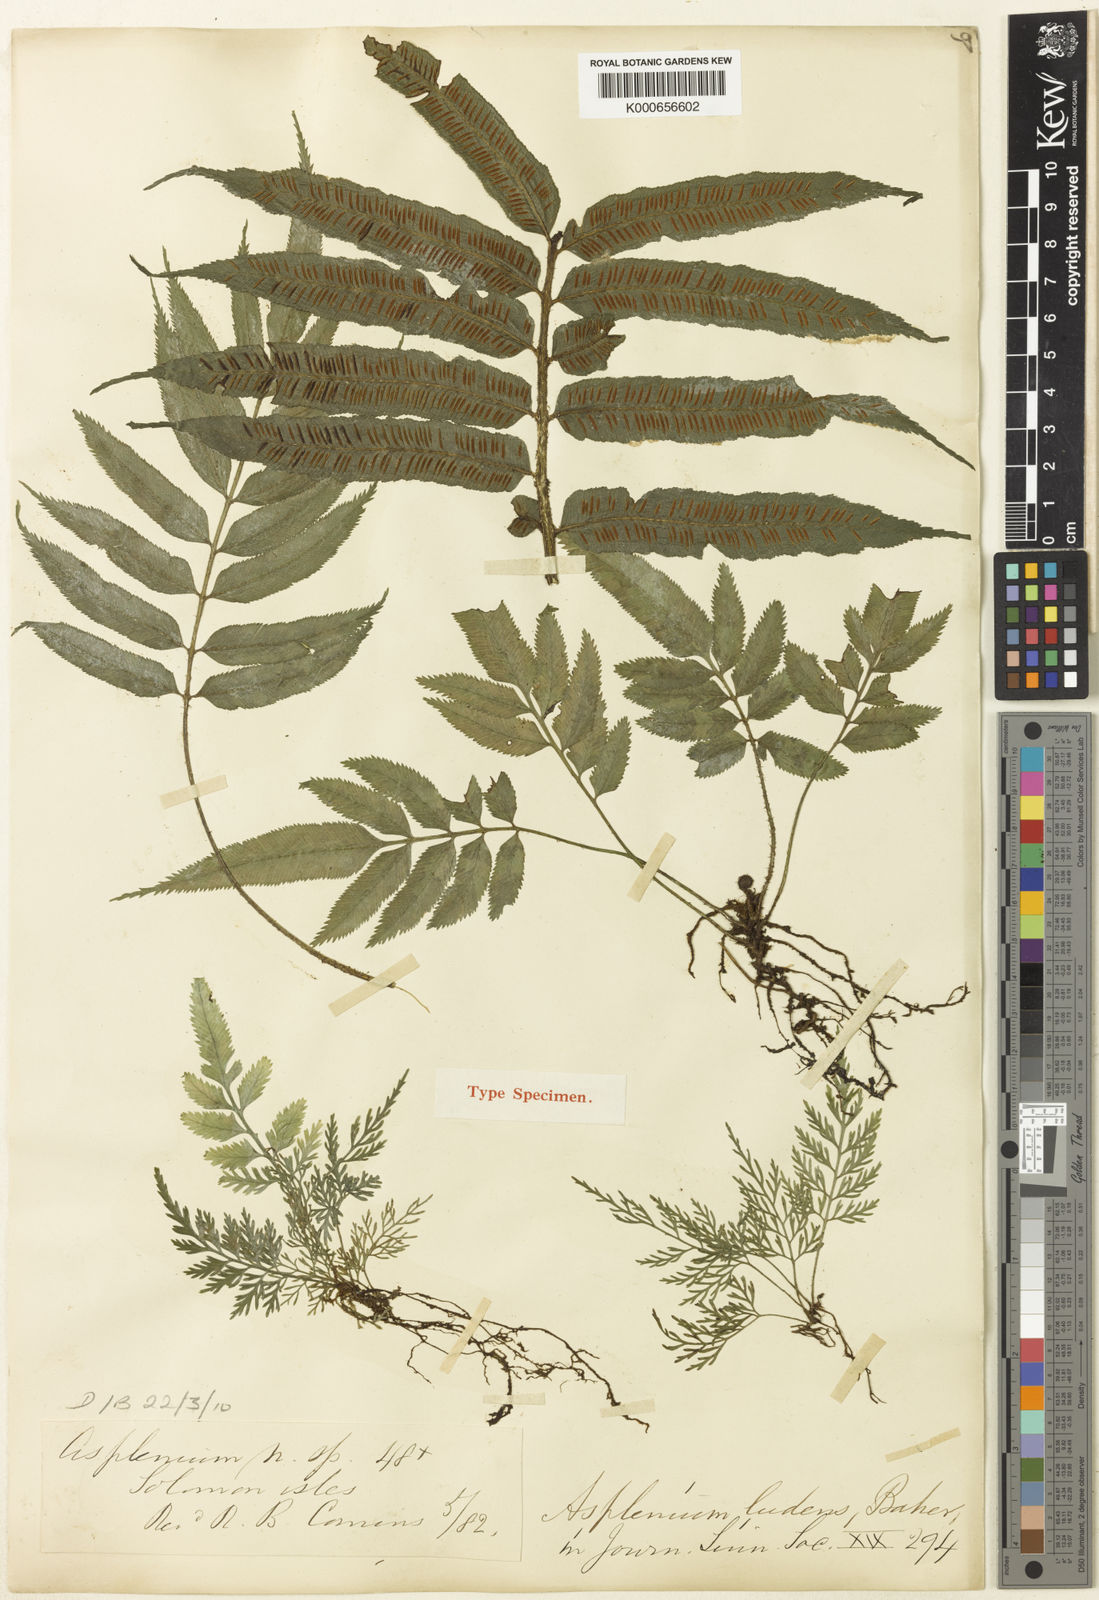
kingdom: Plantae
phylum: Tracheophyta
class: Polypodiopsida
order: Polypodiales
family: Aspleniaceae
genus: Asplenium
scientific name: Asplenium marattioides
